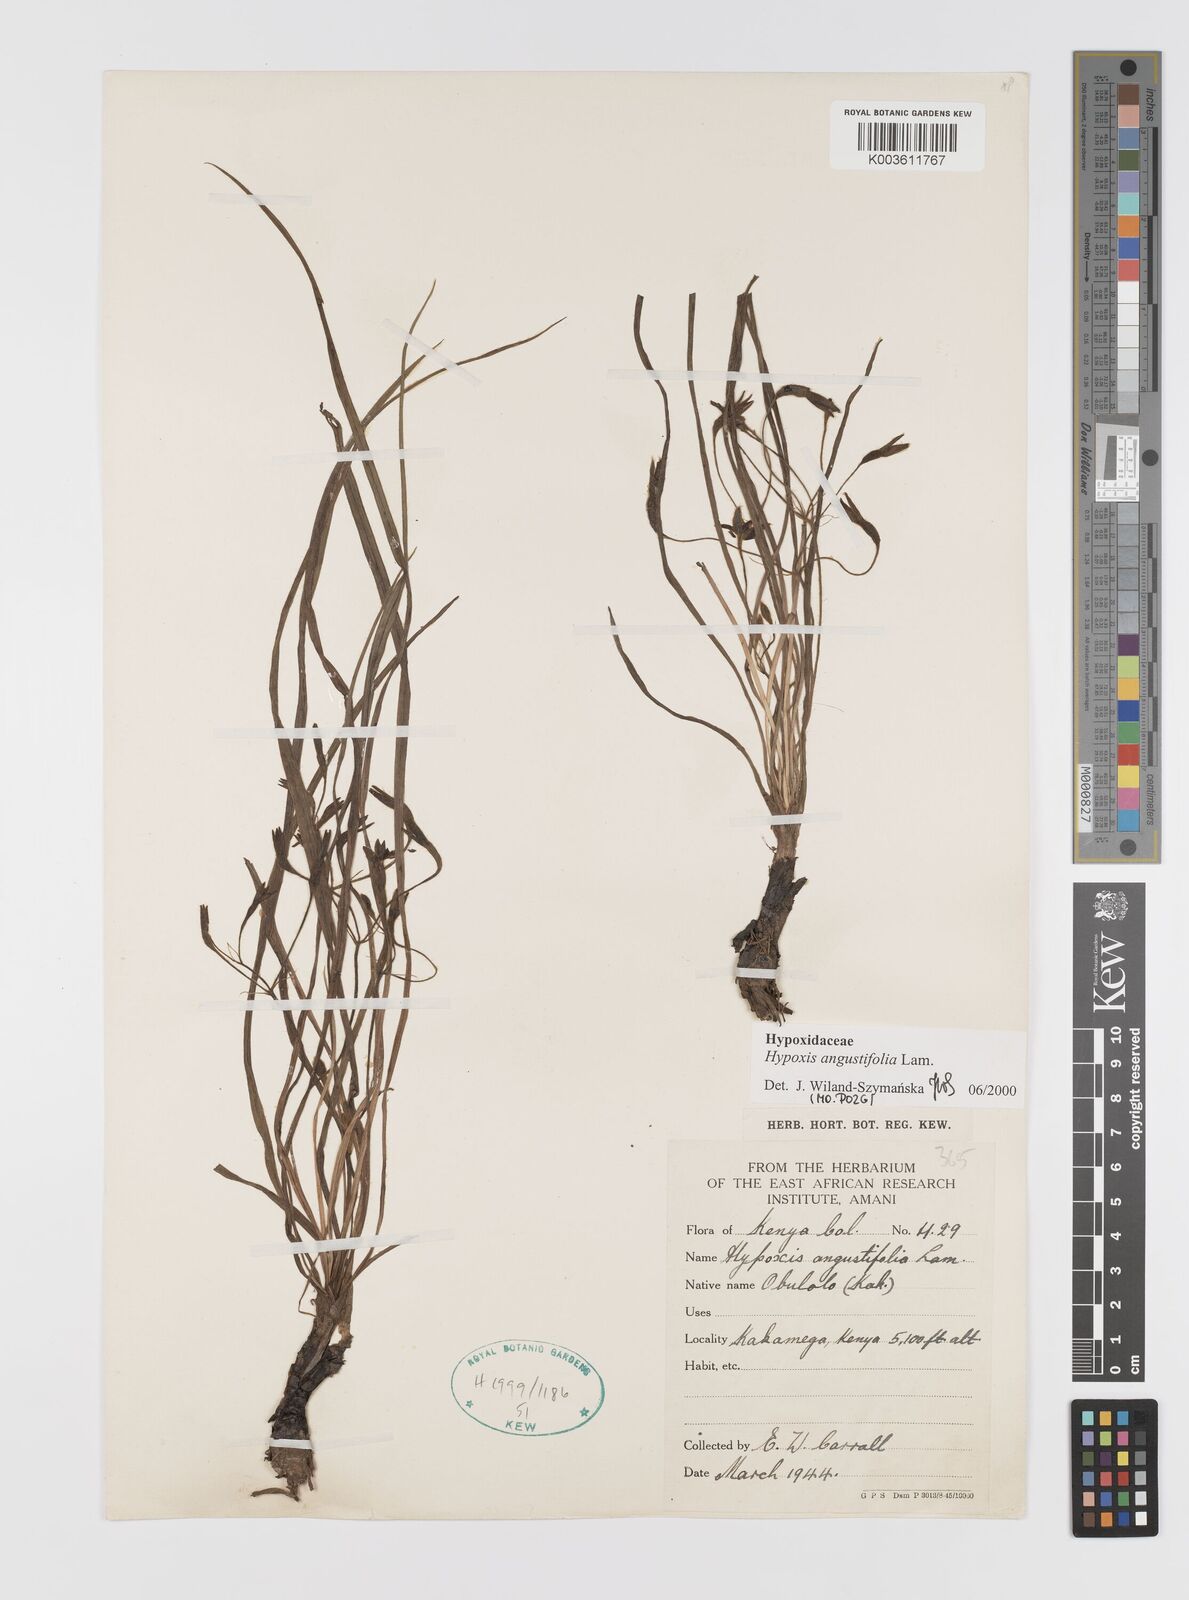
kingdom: Plantae
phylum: Tracheophyta
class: Liliopsida
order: Asparagales
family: Hypoxidaceae
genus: Hypoxis
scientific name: Hypoxis angustifolia
